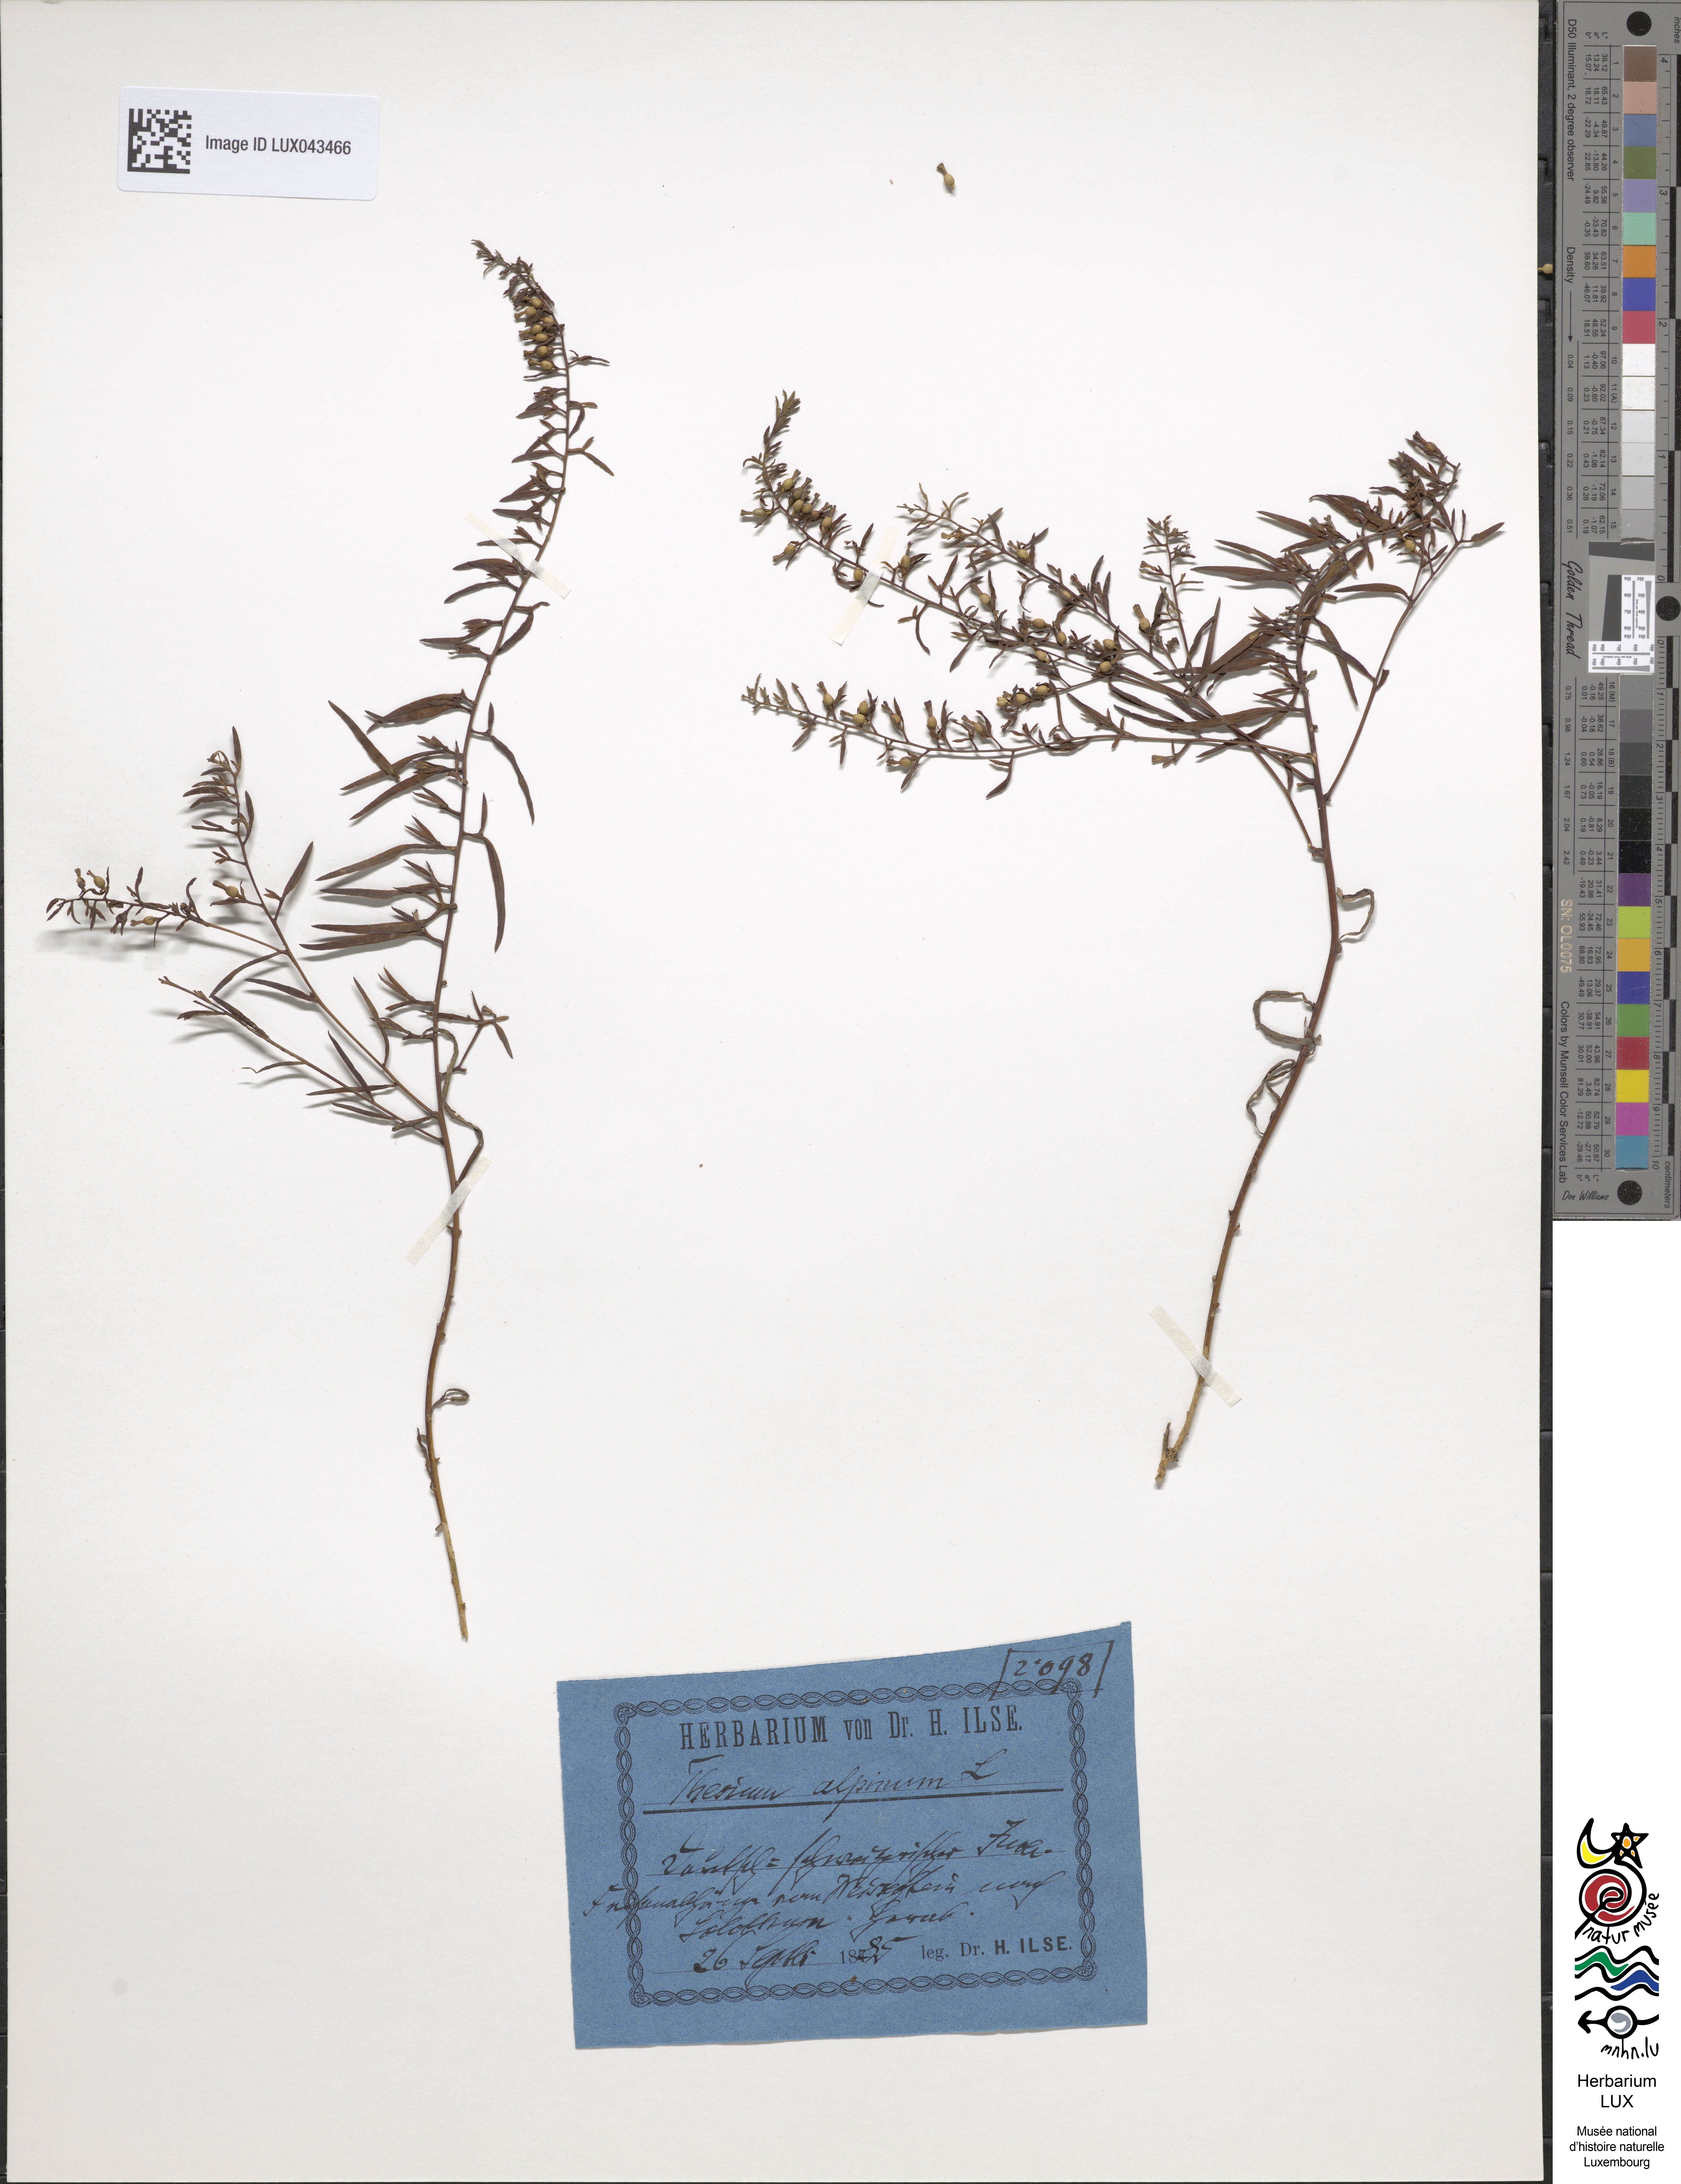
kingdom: Plantae
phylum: Tracheophyta
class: Magnoliopsida
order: Santalales
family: Thesiaceae
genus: Thesium
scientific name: Thesium alpinum
